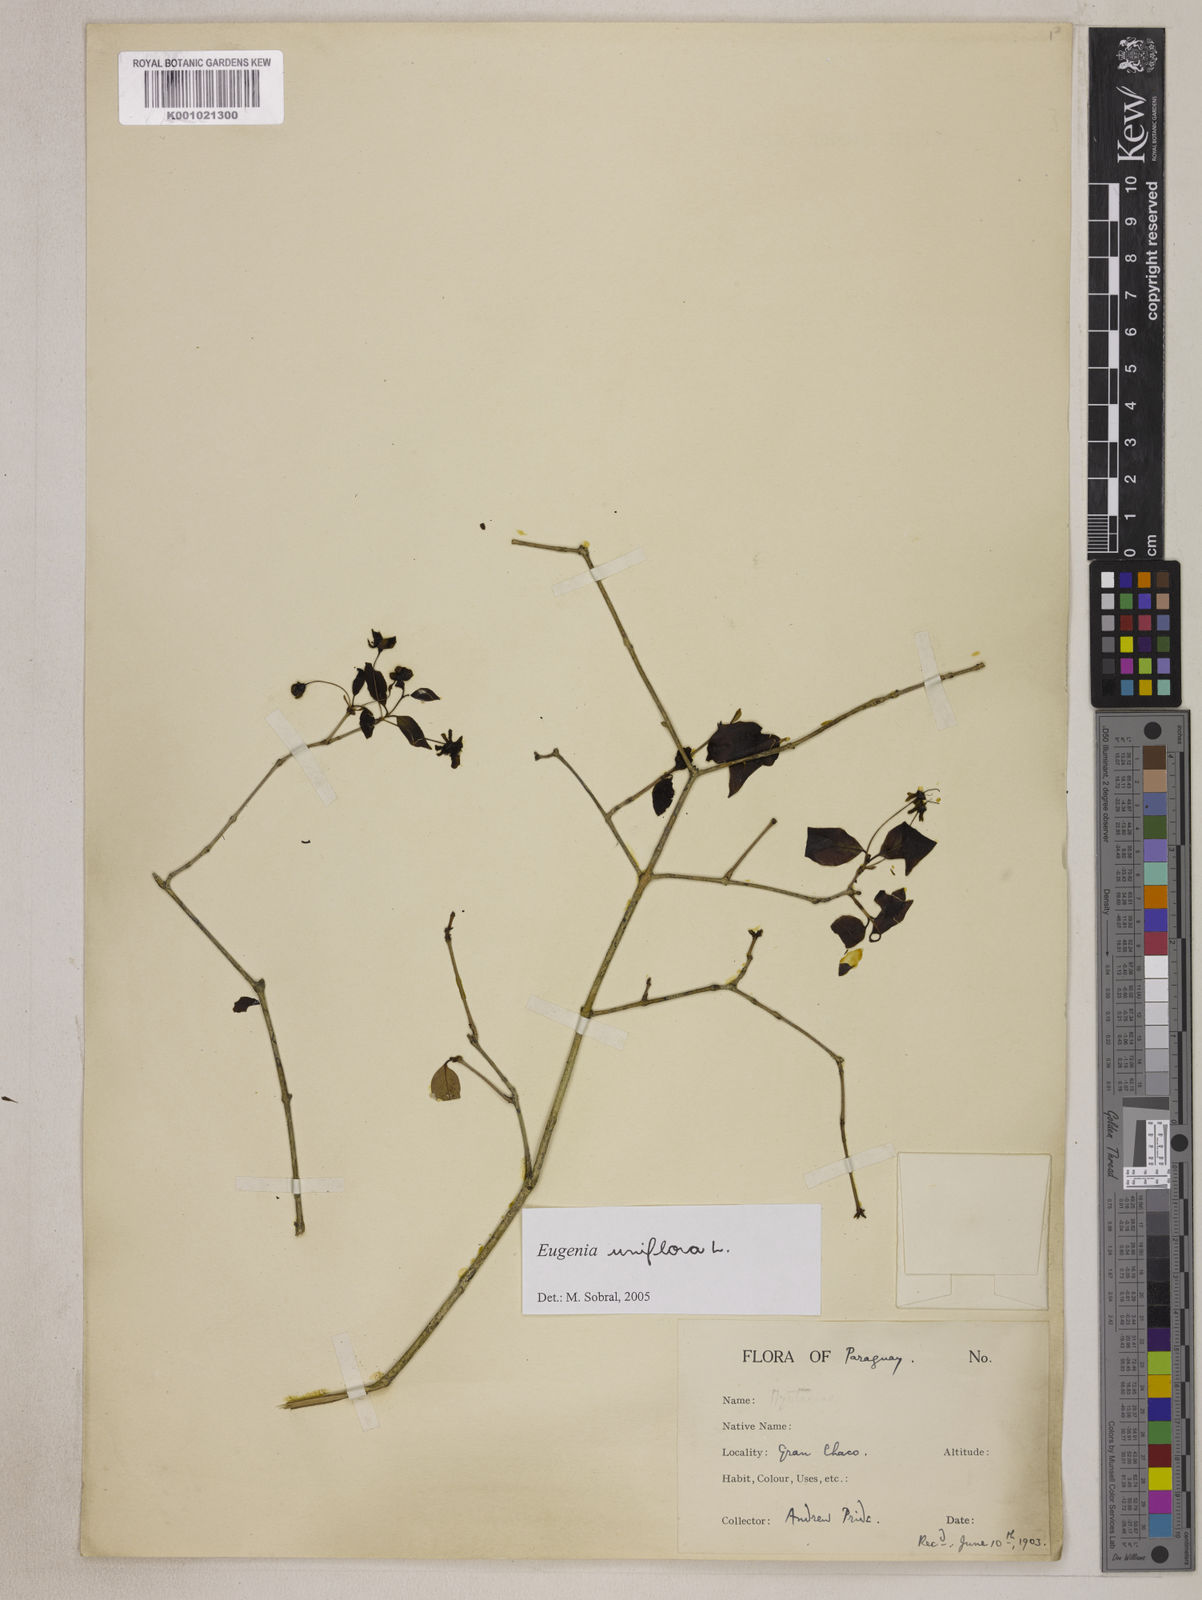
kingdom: Plantae
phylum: Tracheophyta
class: Magnoliopsida
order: Myrtales
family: Myrtaceae
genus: Eugenia
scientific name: Eugenia uniflora
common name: Surinam cherry
